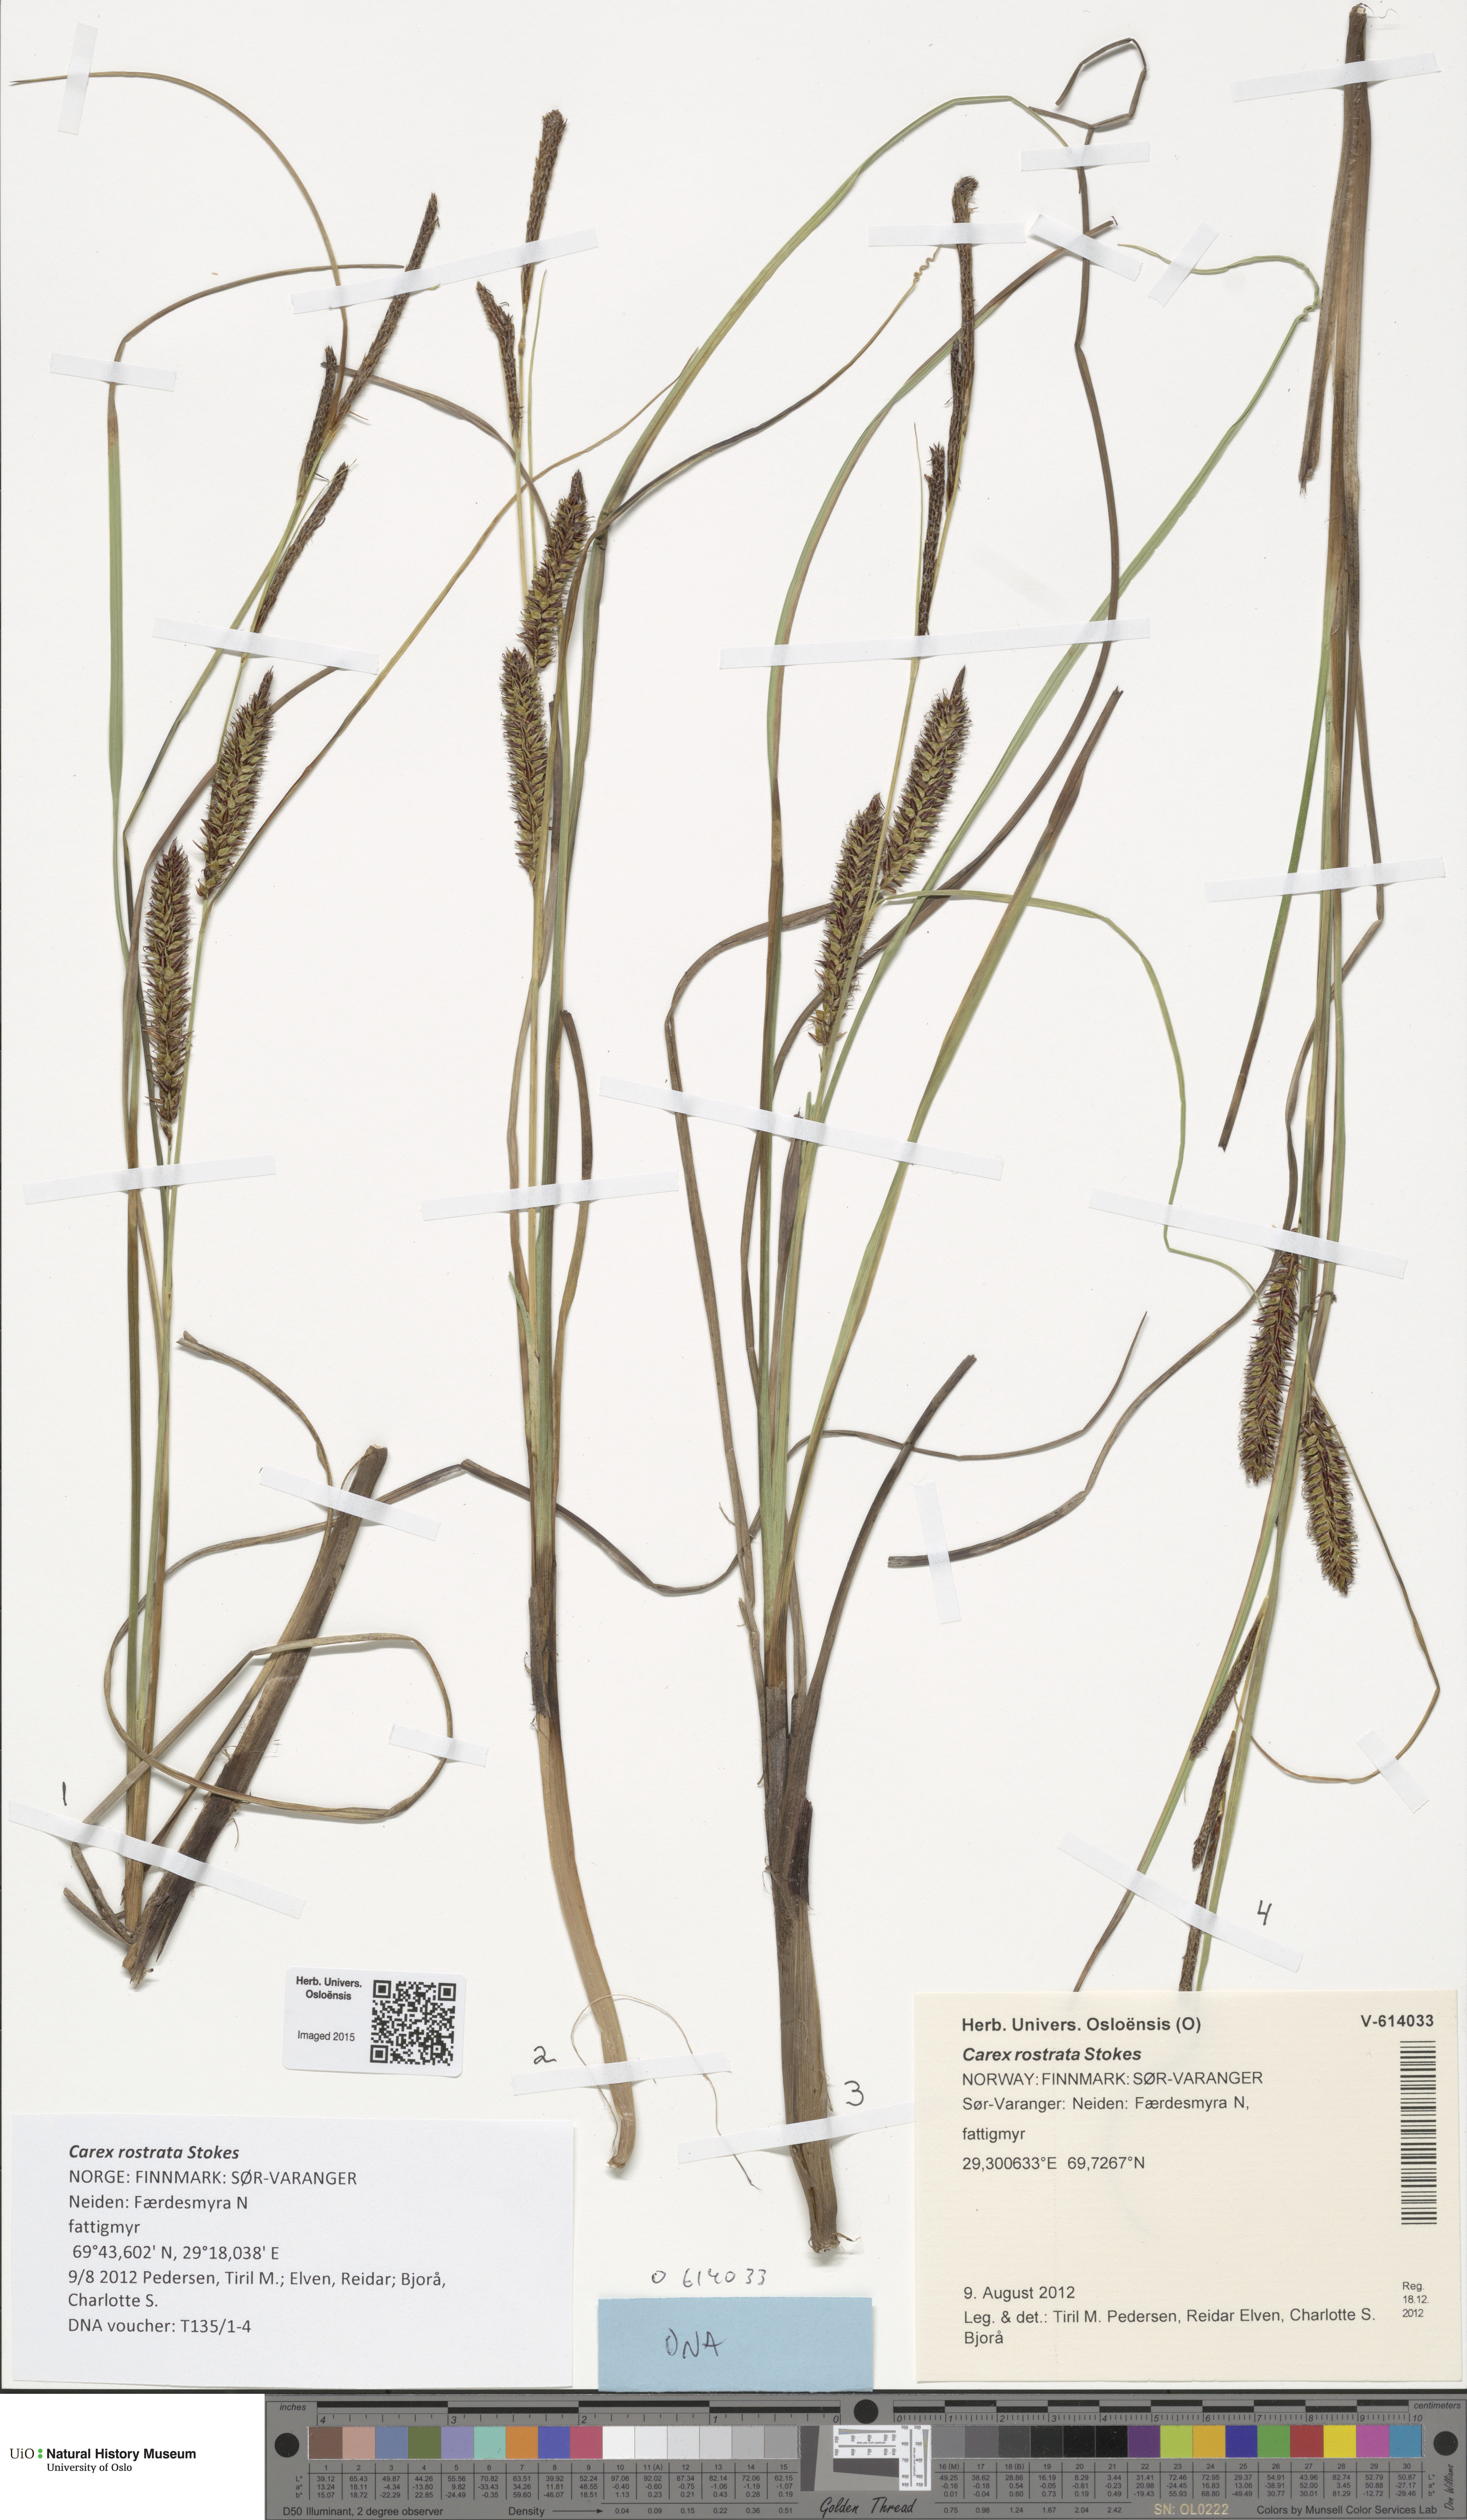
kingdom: Plantae
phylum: Tracheophyta
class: Liliopsida
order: Poales
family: Cyperaceae
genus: Carex
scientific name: Carex rostrata
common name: Bottle sedge
